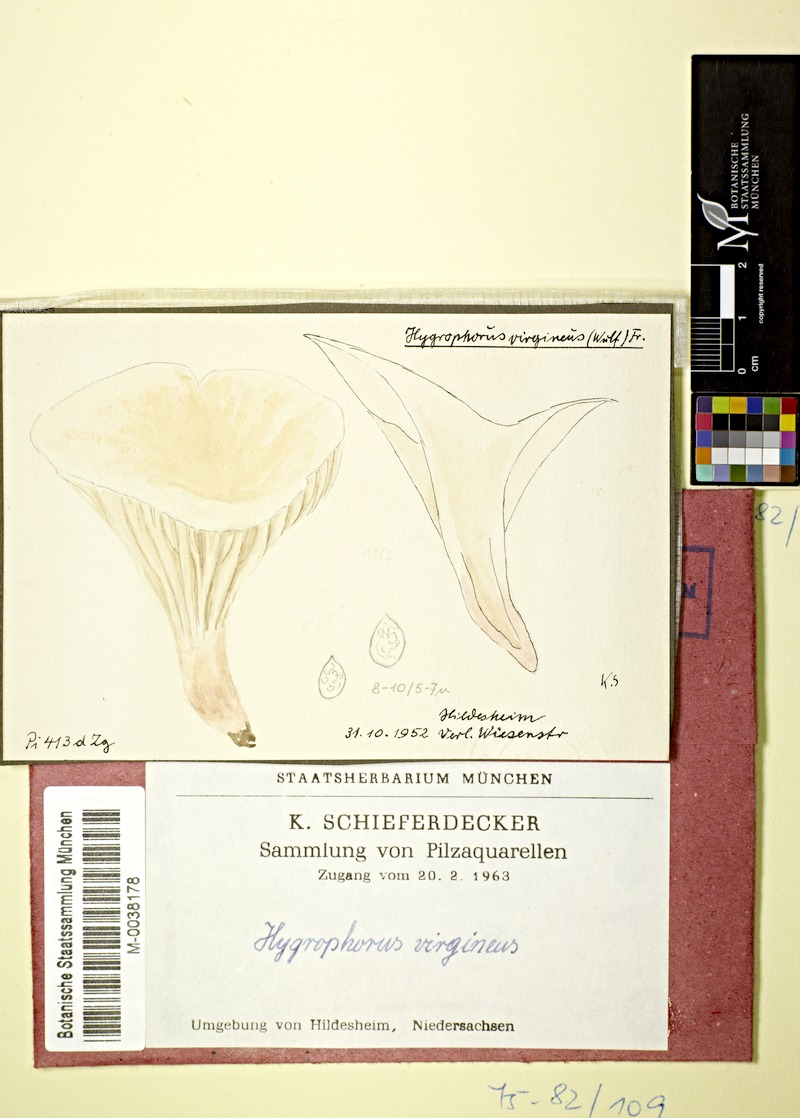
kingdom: Fungi
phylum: Basidiomycota
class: Agaricomycetes
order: Agaricales
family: Hygrophoraceae
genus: Cuphophyllus
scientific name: Cuphophyllus virgineus
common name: Snowy waxcap
